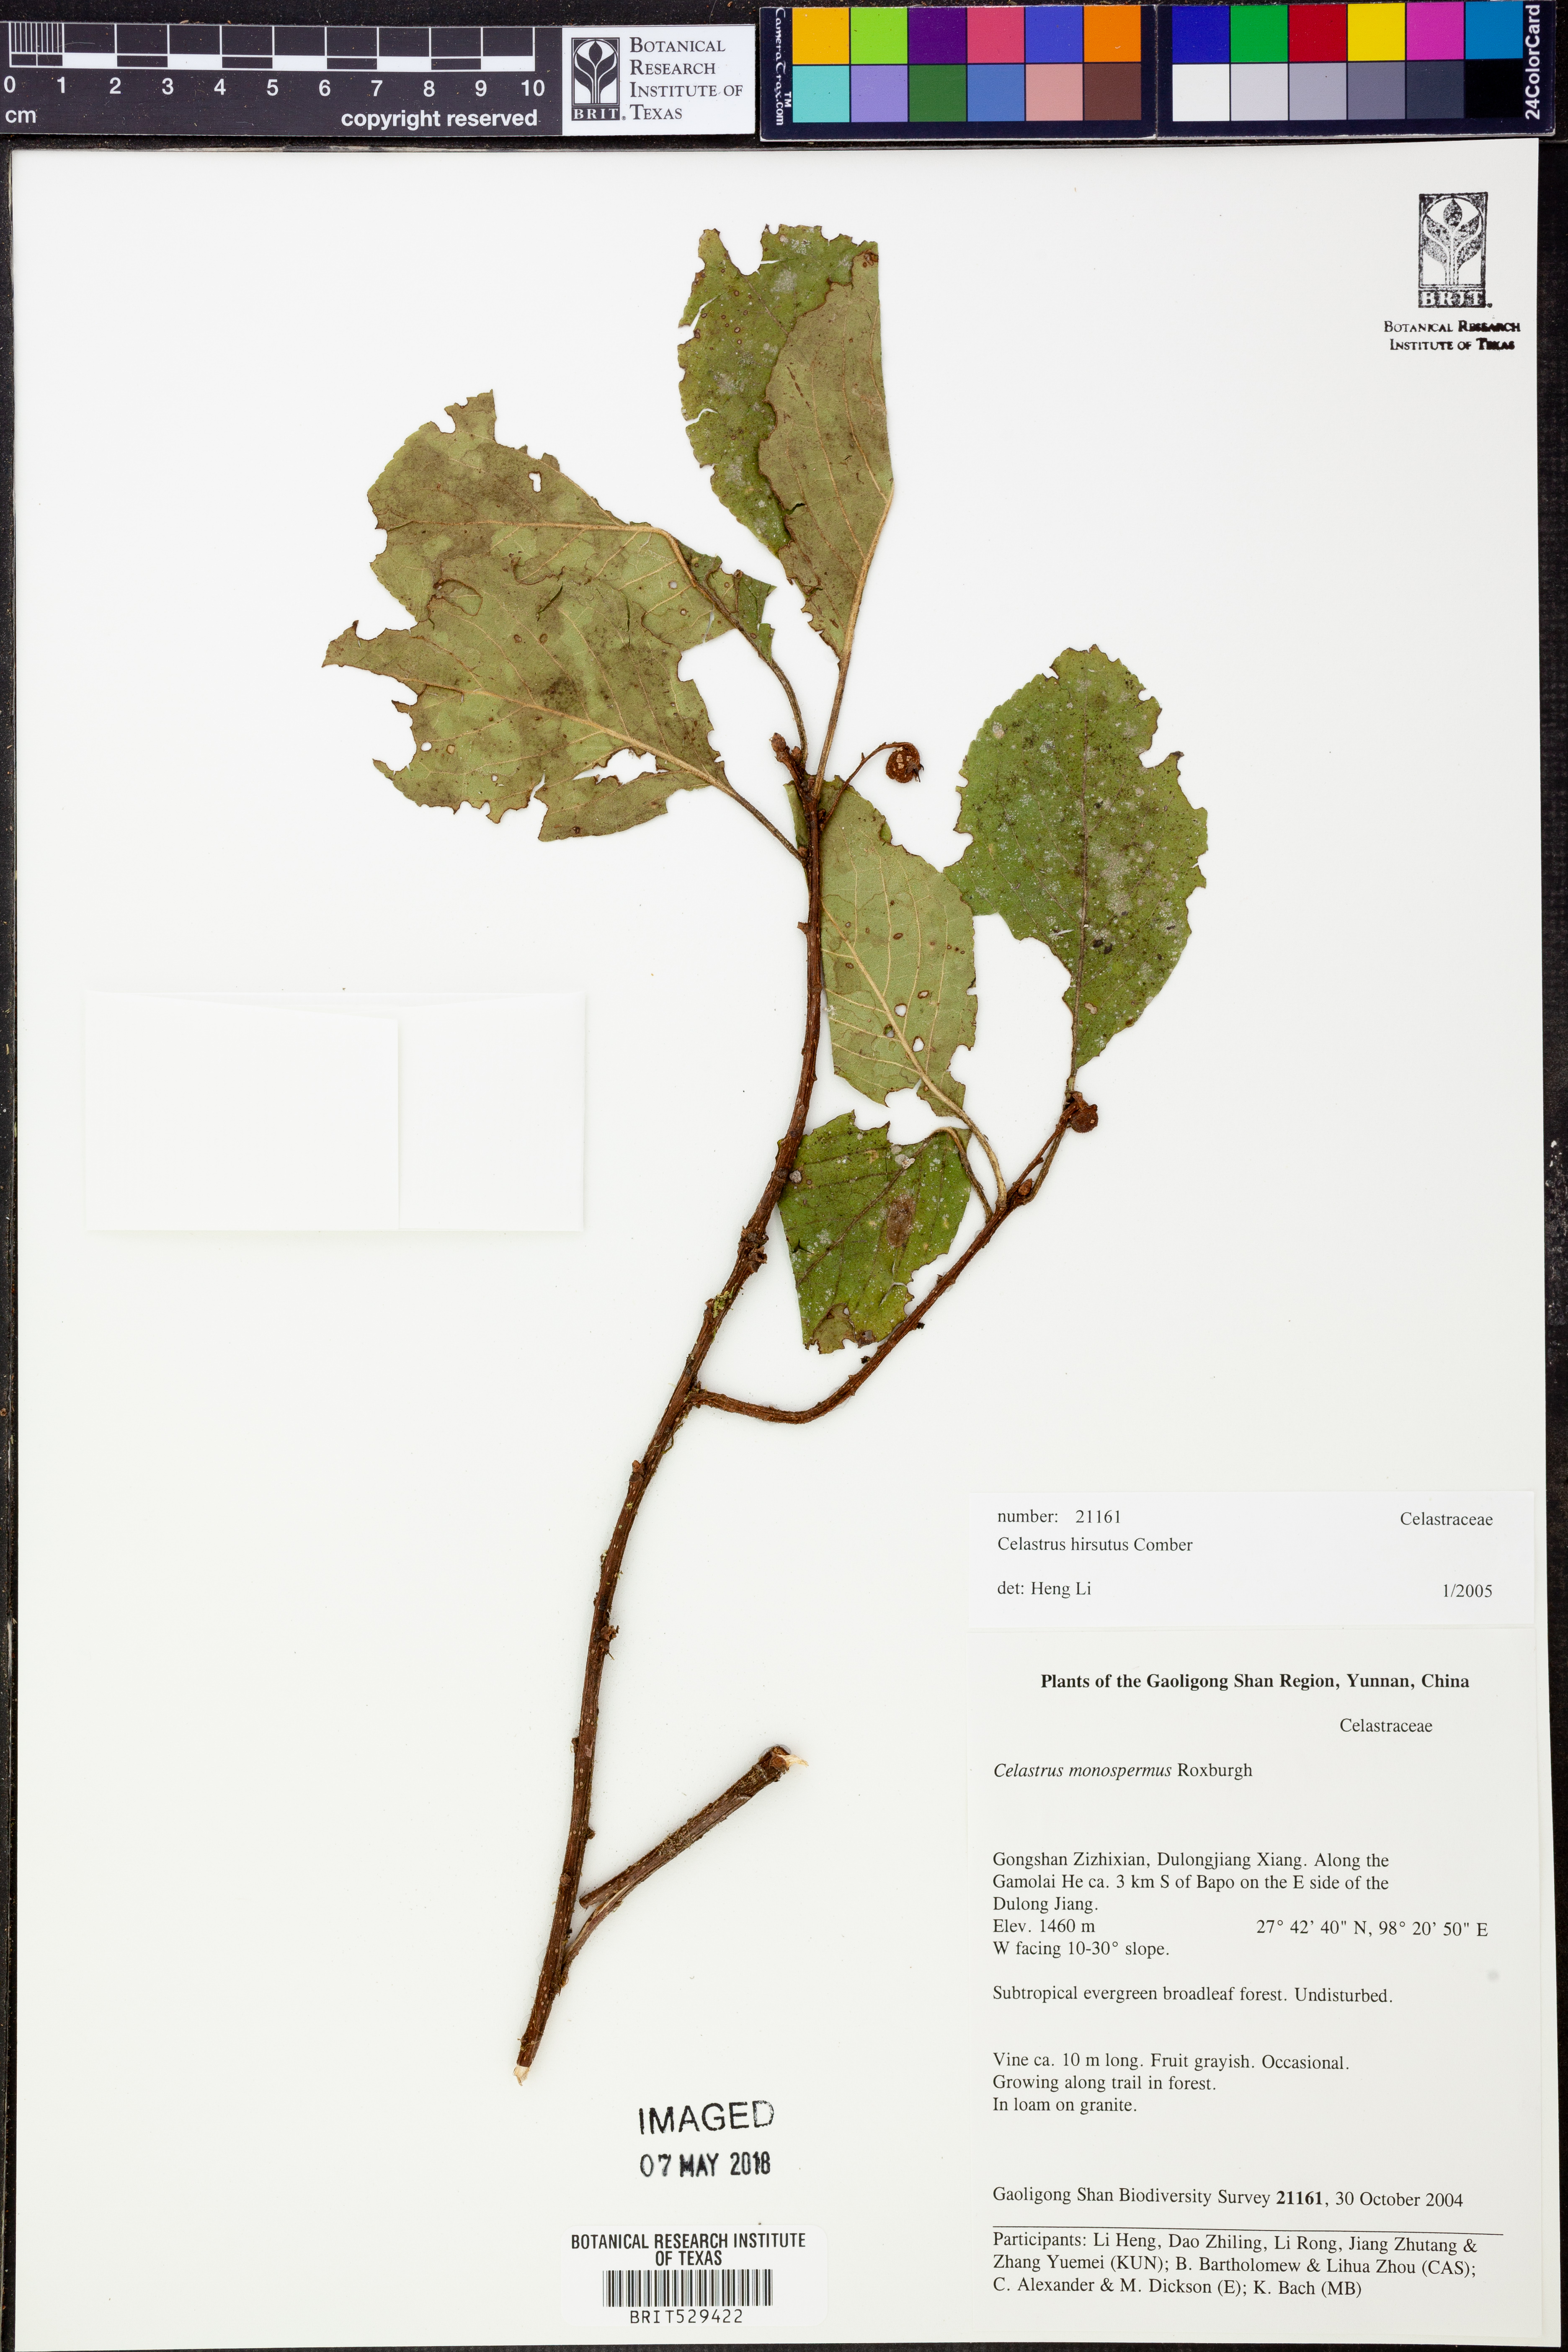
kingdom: Plantae
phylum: Tracheophyta
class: Magnoliopsida
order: Celastrales
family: Celastraceae
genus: Celastrus
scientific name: Celastrus hirsutus
